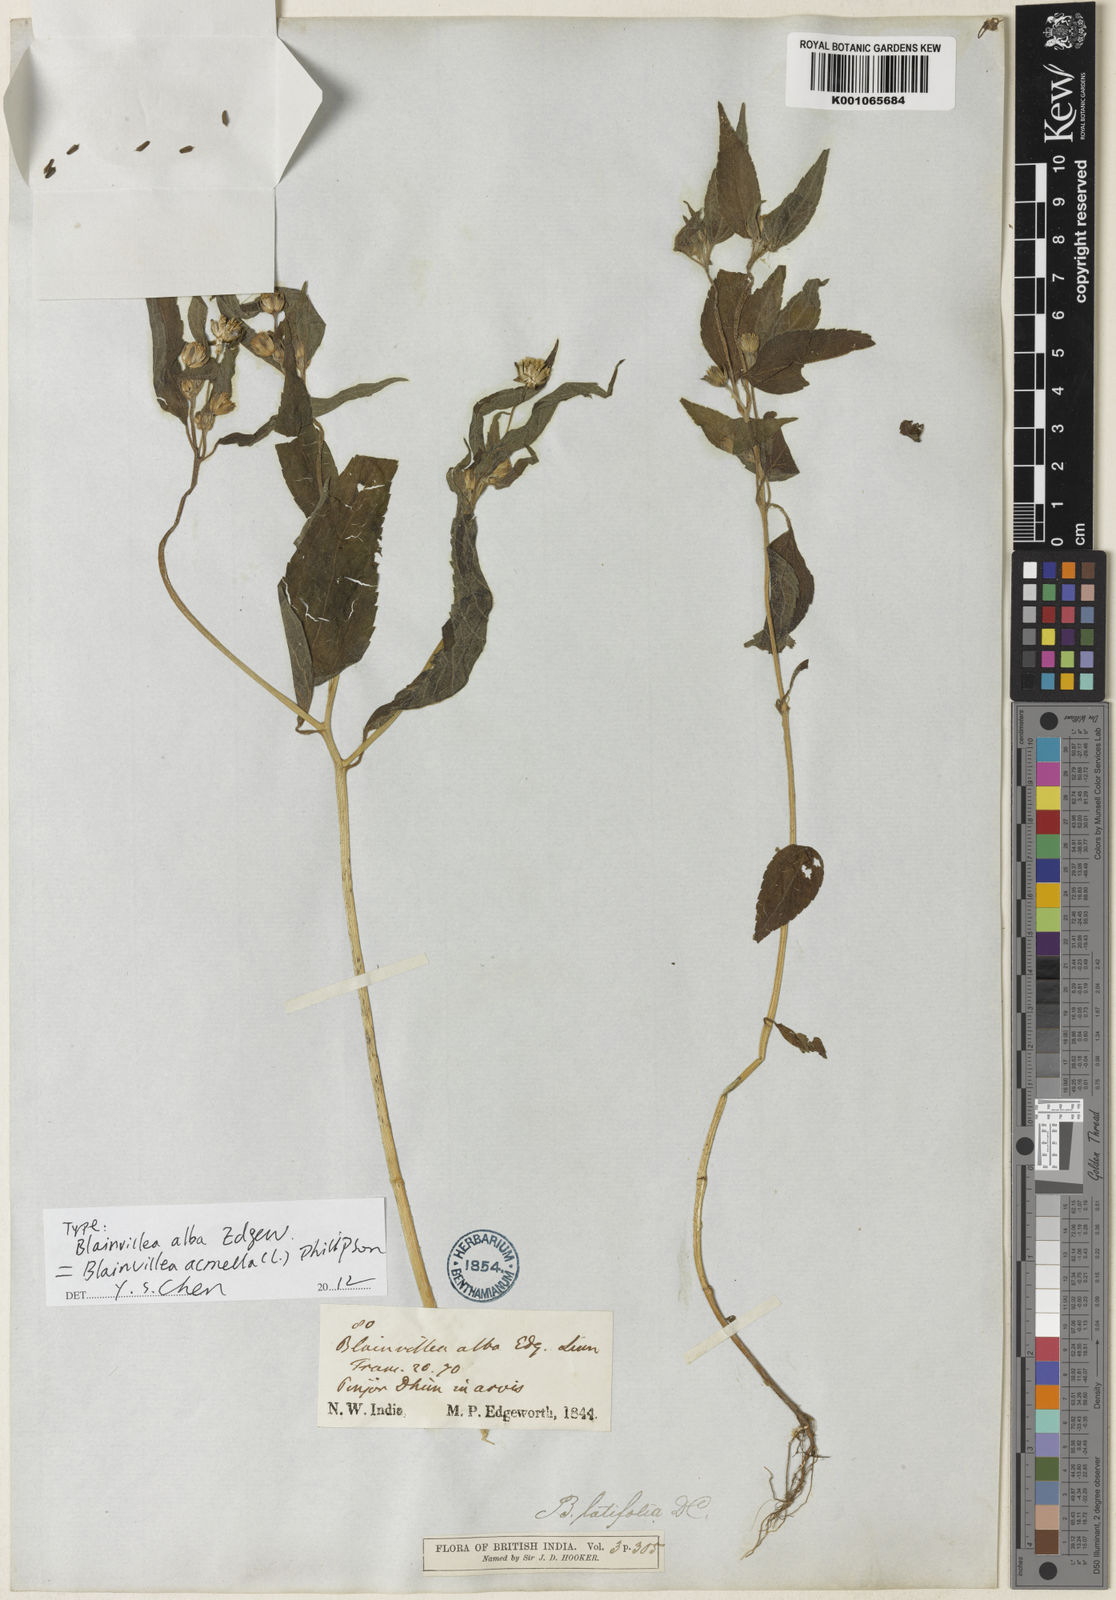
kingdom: Plantae
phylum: Tracheophyta
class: Magnoliopsida
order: Asterales
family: Asteraceae
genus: Blainvillea
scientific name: Blainvillea acmella
